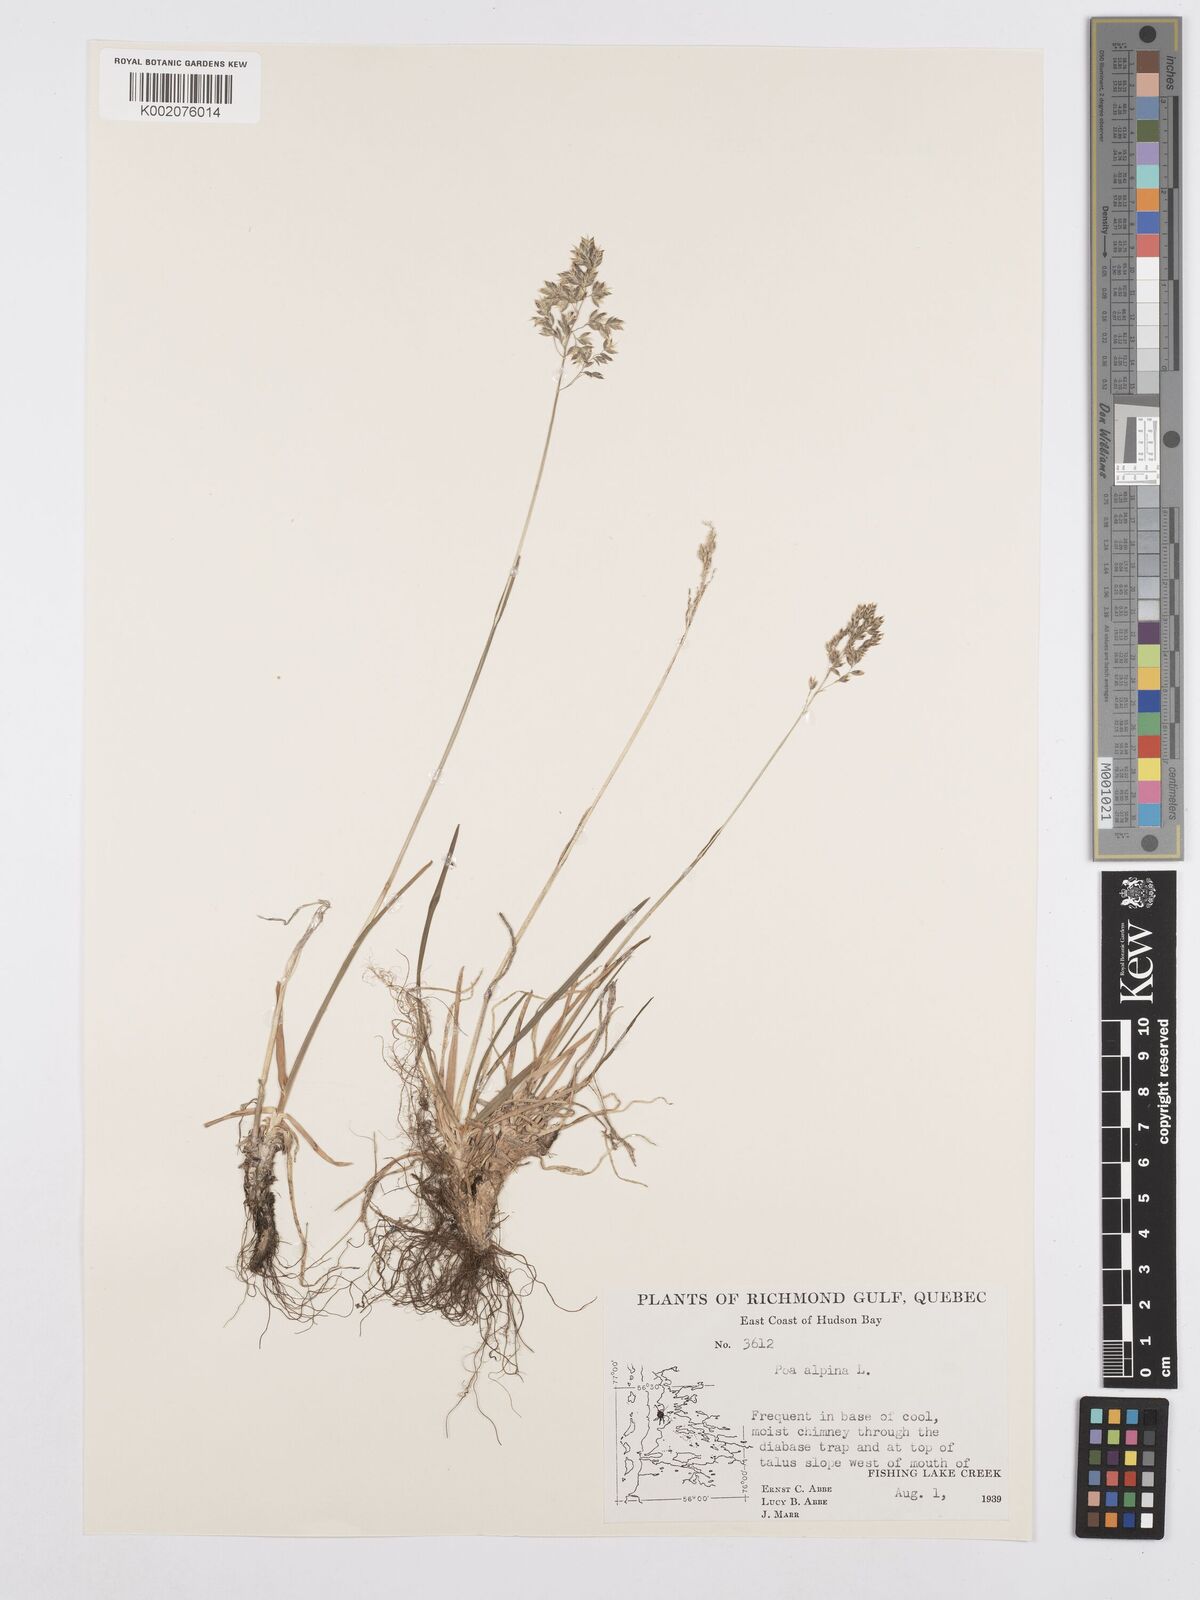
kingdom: Plantae
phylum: Tracheophyta
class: Liliopsida
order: Poales
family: Poaceae
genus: Poa
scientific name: Poa alpina
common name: Alpine bluegrass
